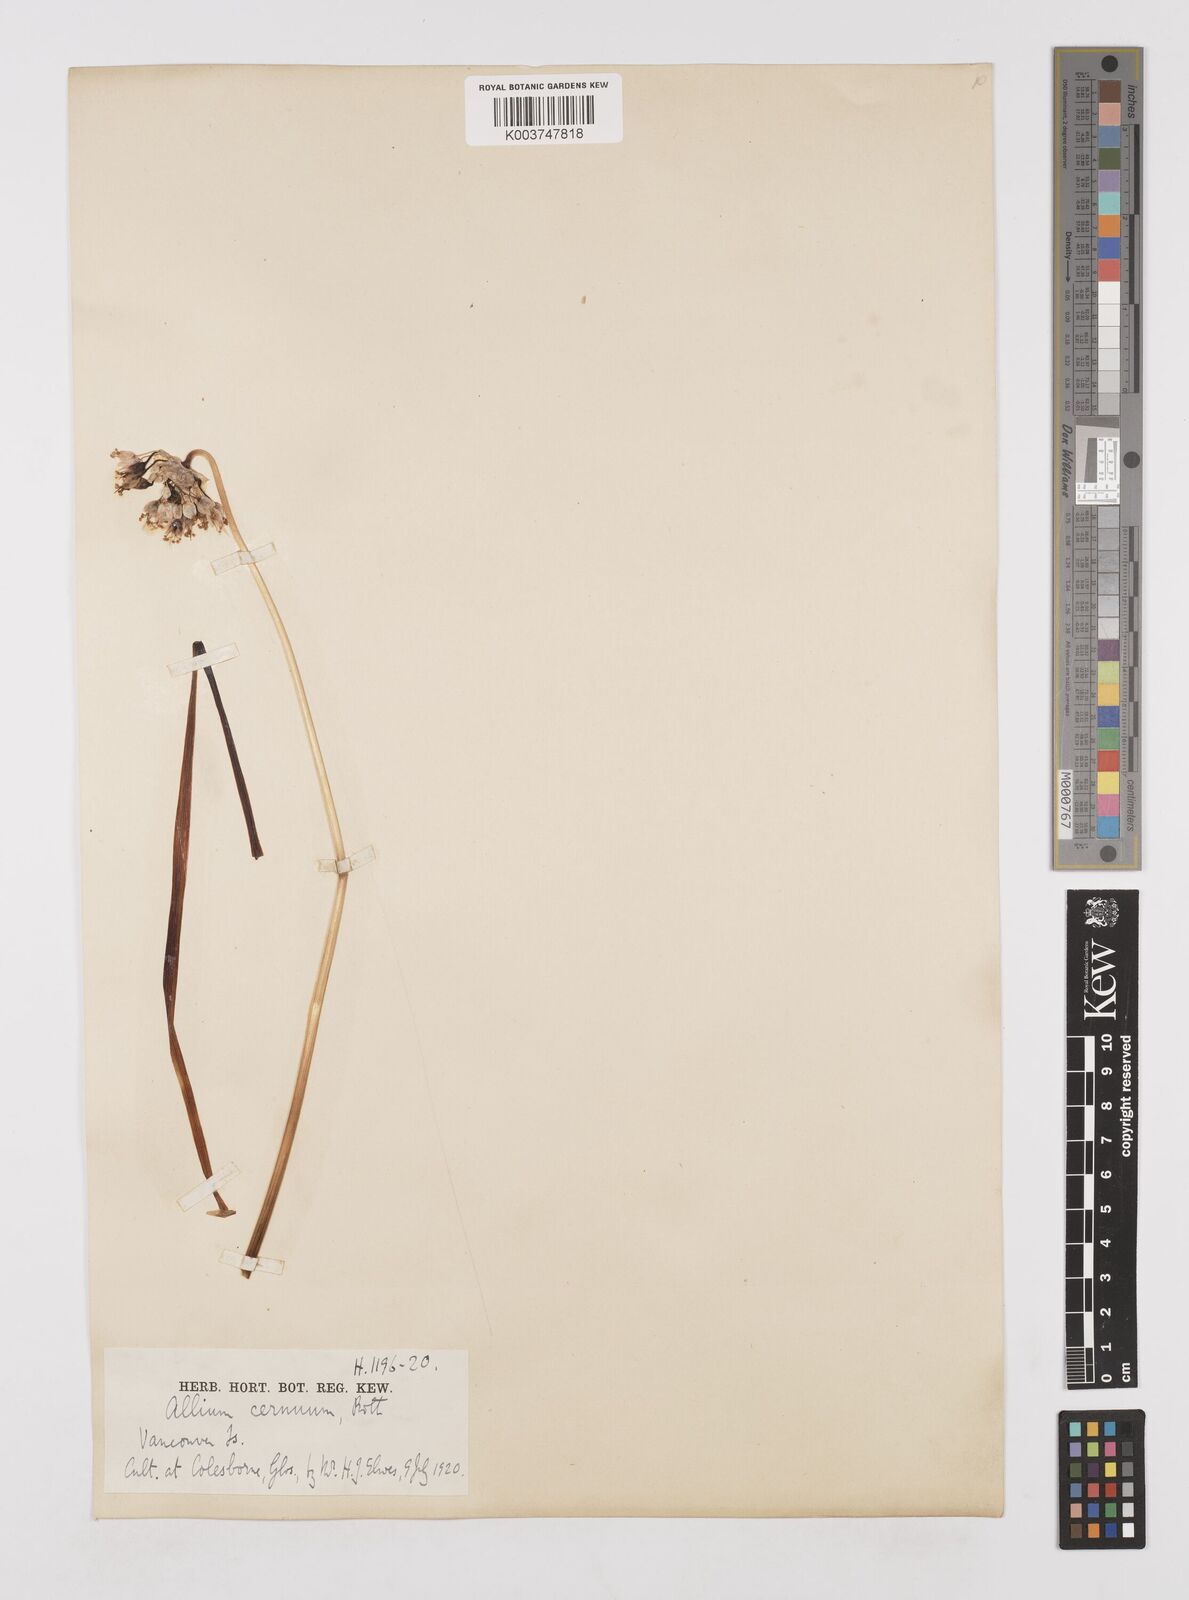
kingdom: Plantae
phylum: Tracheophyta
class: Liliopsida
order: Asparagales
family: Amaryllidaceae
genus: Allium
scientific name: Allium cernuum
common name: Nodding onion
